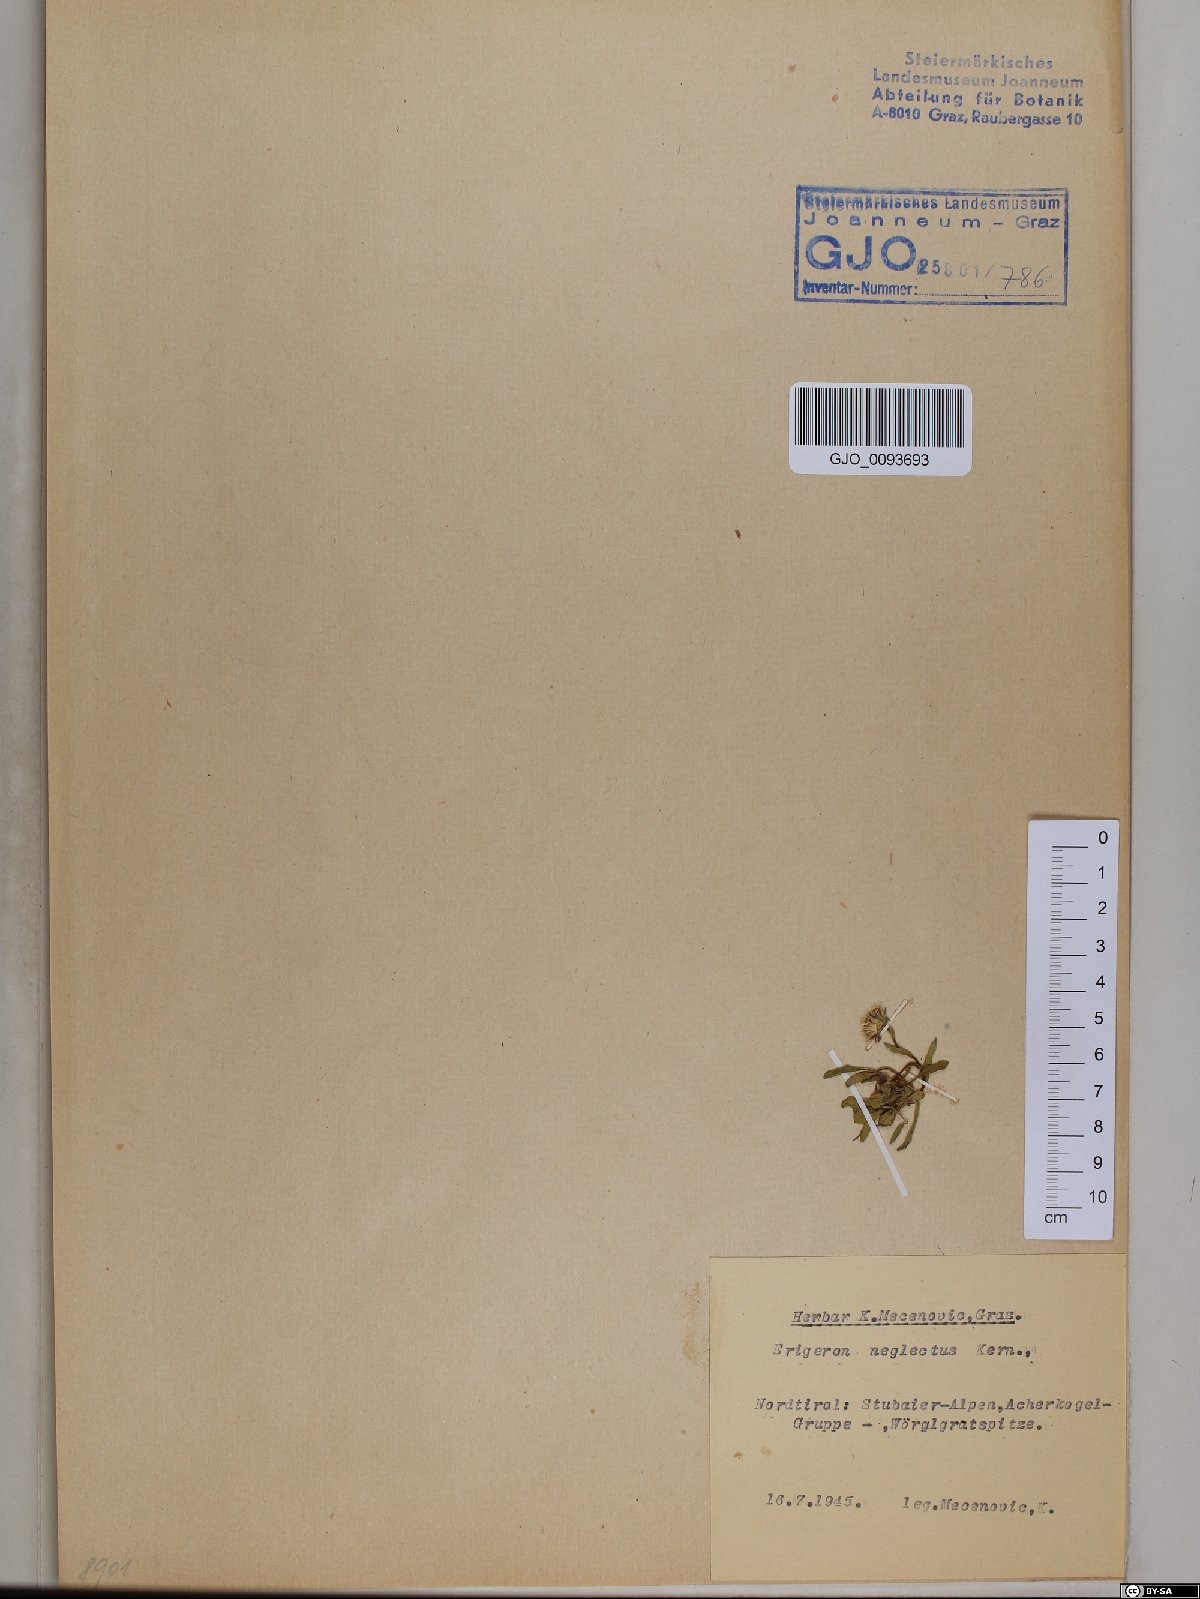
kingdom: Plantae
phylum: Tracheophyta
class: Magnoliopsida
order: Asterales
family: Asteraceae
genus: Erigeron
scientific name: Erigeron neglectus
